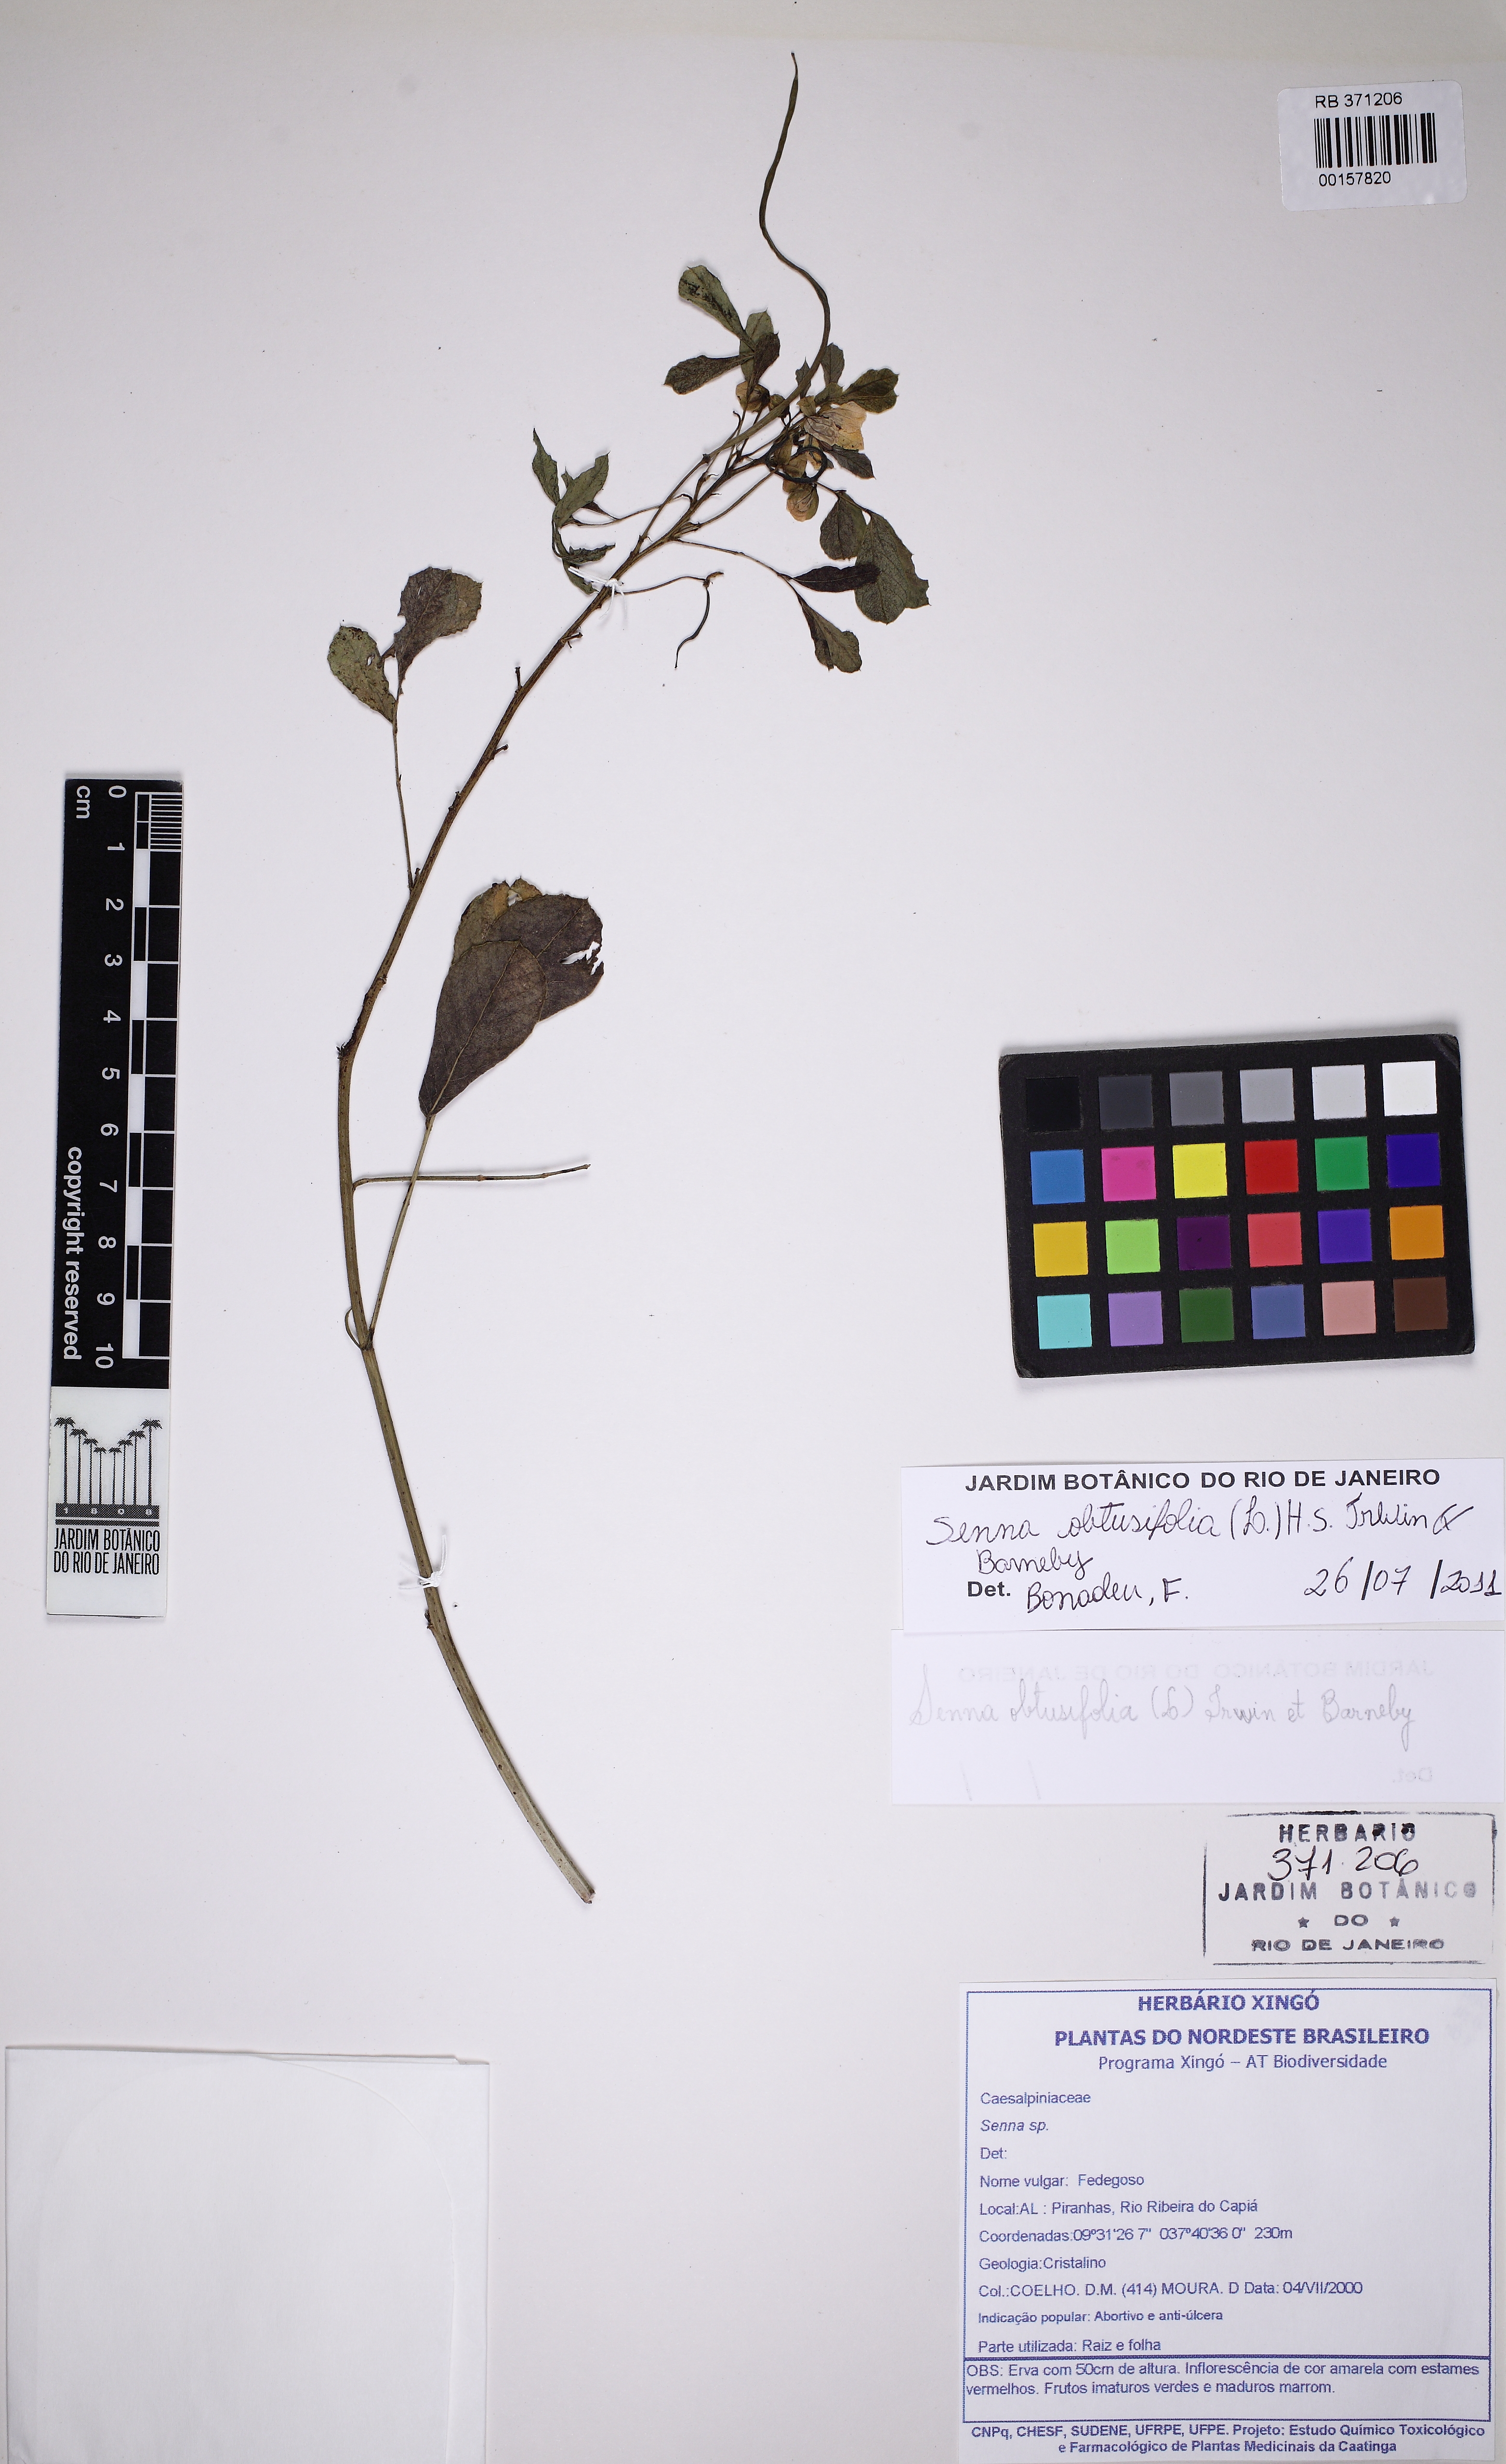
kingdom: Plantae
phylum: Tracheophyta
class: Magnoliopsida
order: Fabales
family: Fabaceae
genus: Senna
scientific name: Senna obtusifolia
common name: Java-bean
